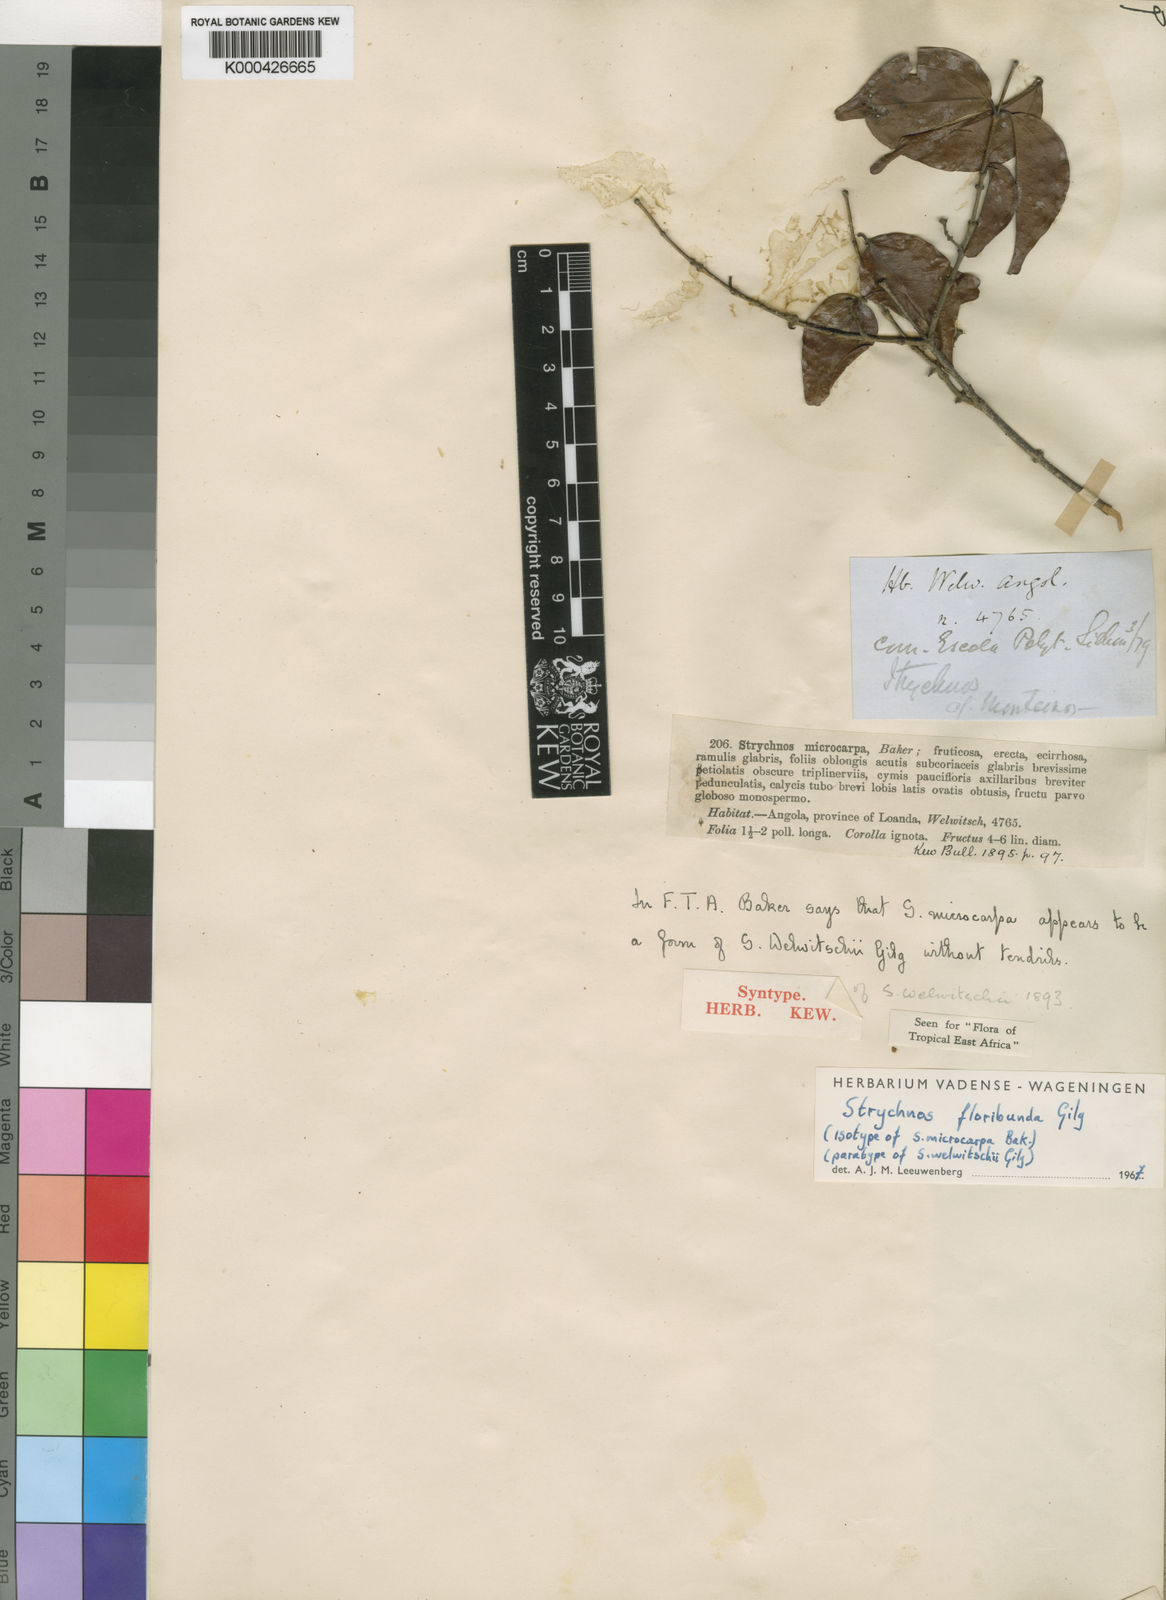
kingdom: Plantae
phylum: Tracheophyta
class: Magnoliopsida
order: Gentianales
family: Loganiaceae
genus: Strychnos
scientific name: Strychnos floribunda
